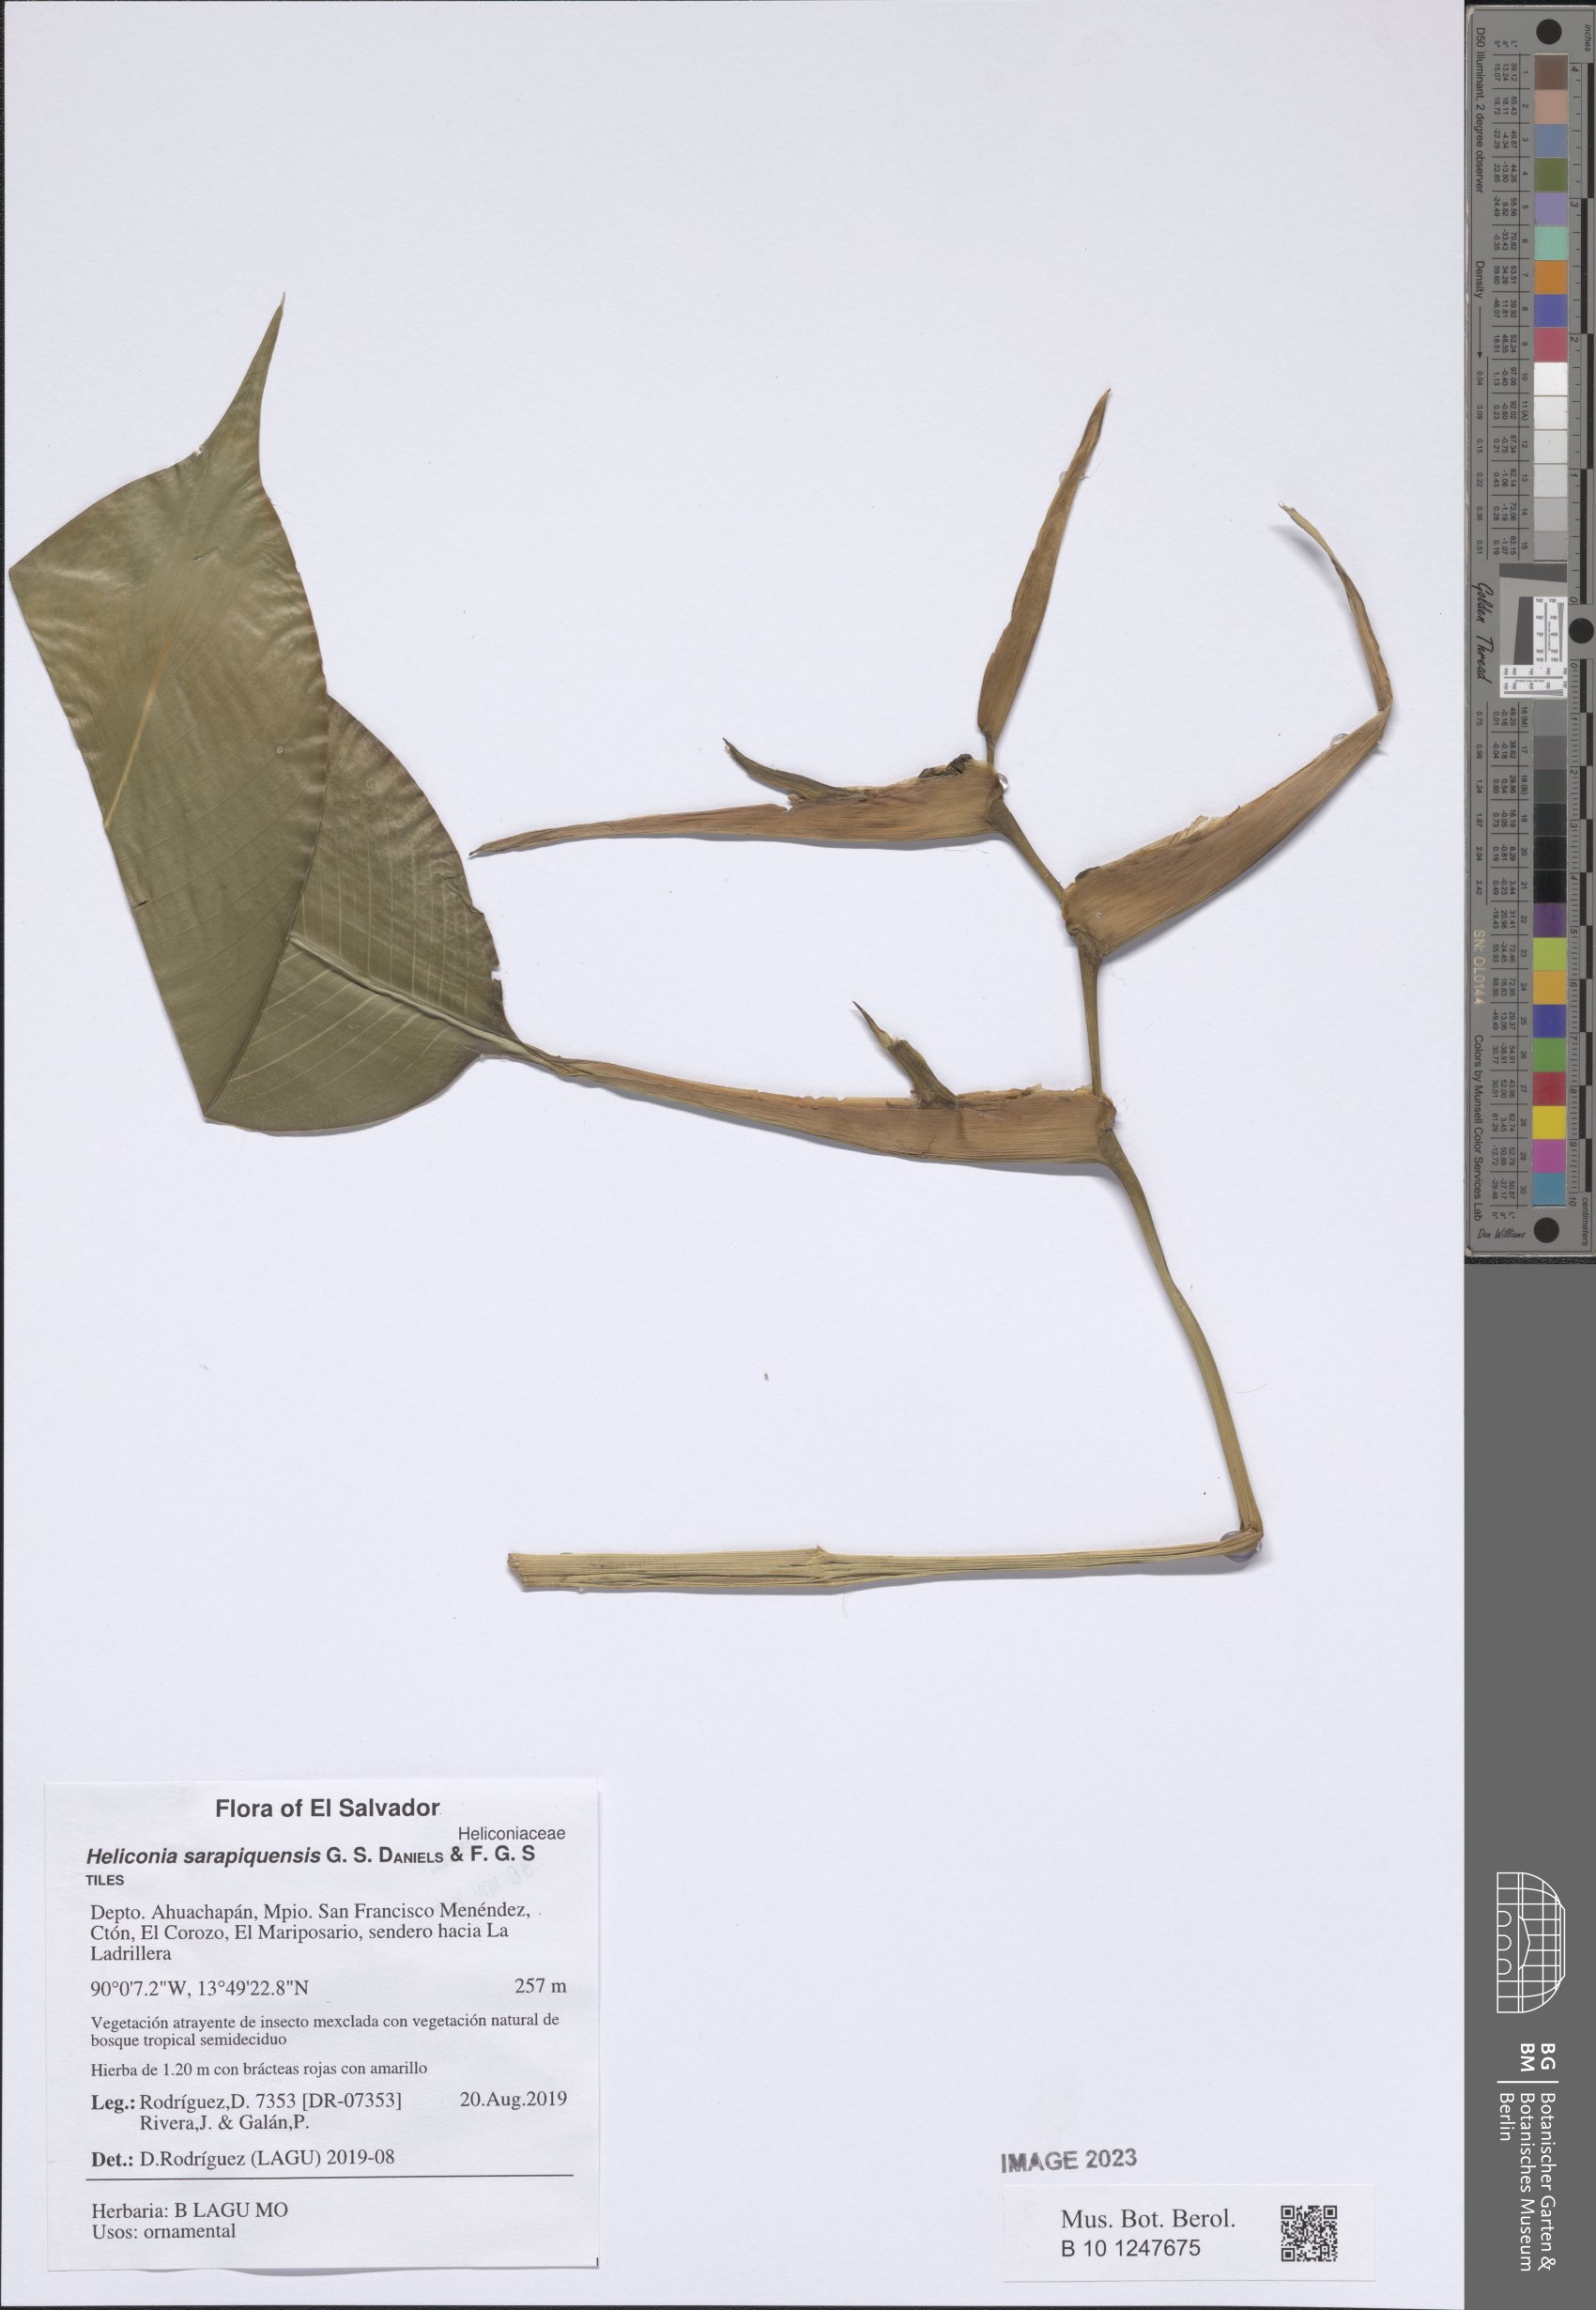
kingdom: Plantae
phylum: Tracheophyta
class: Liliopsida
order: Zingiberales
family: Heliconiaceae
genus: Heliconia
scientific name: Heliconia sarapiquensis
